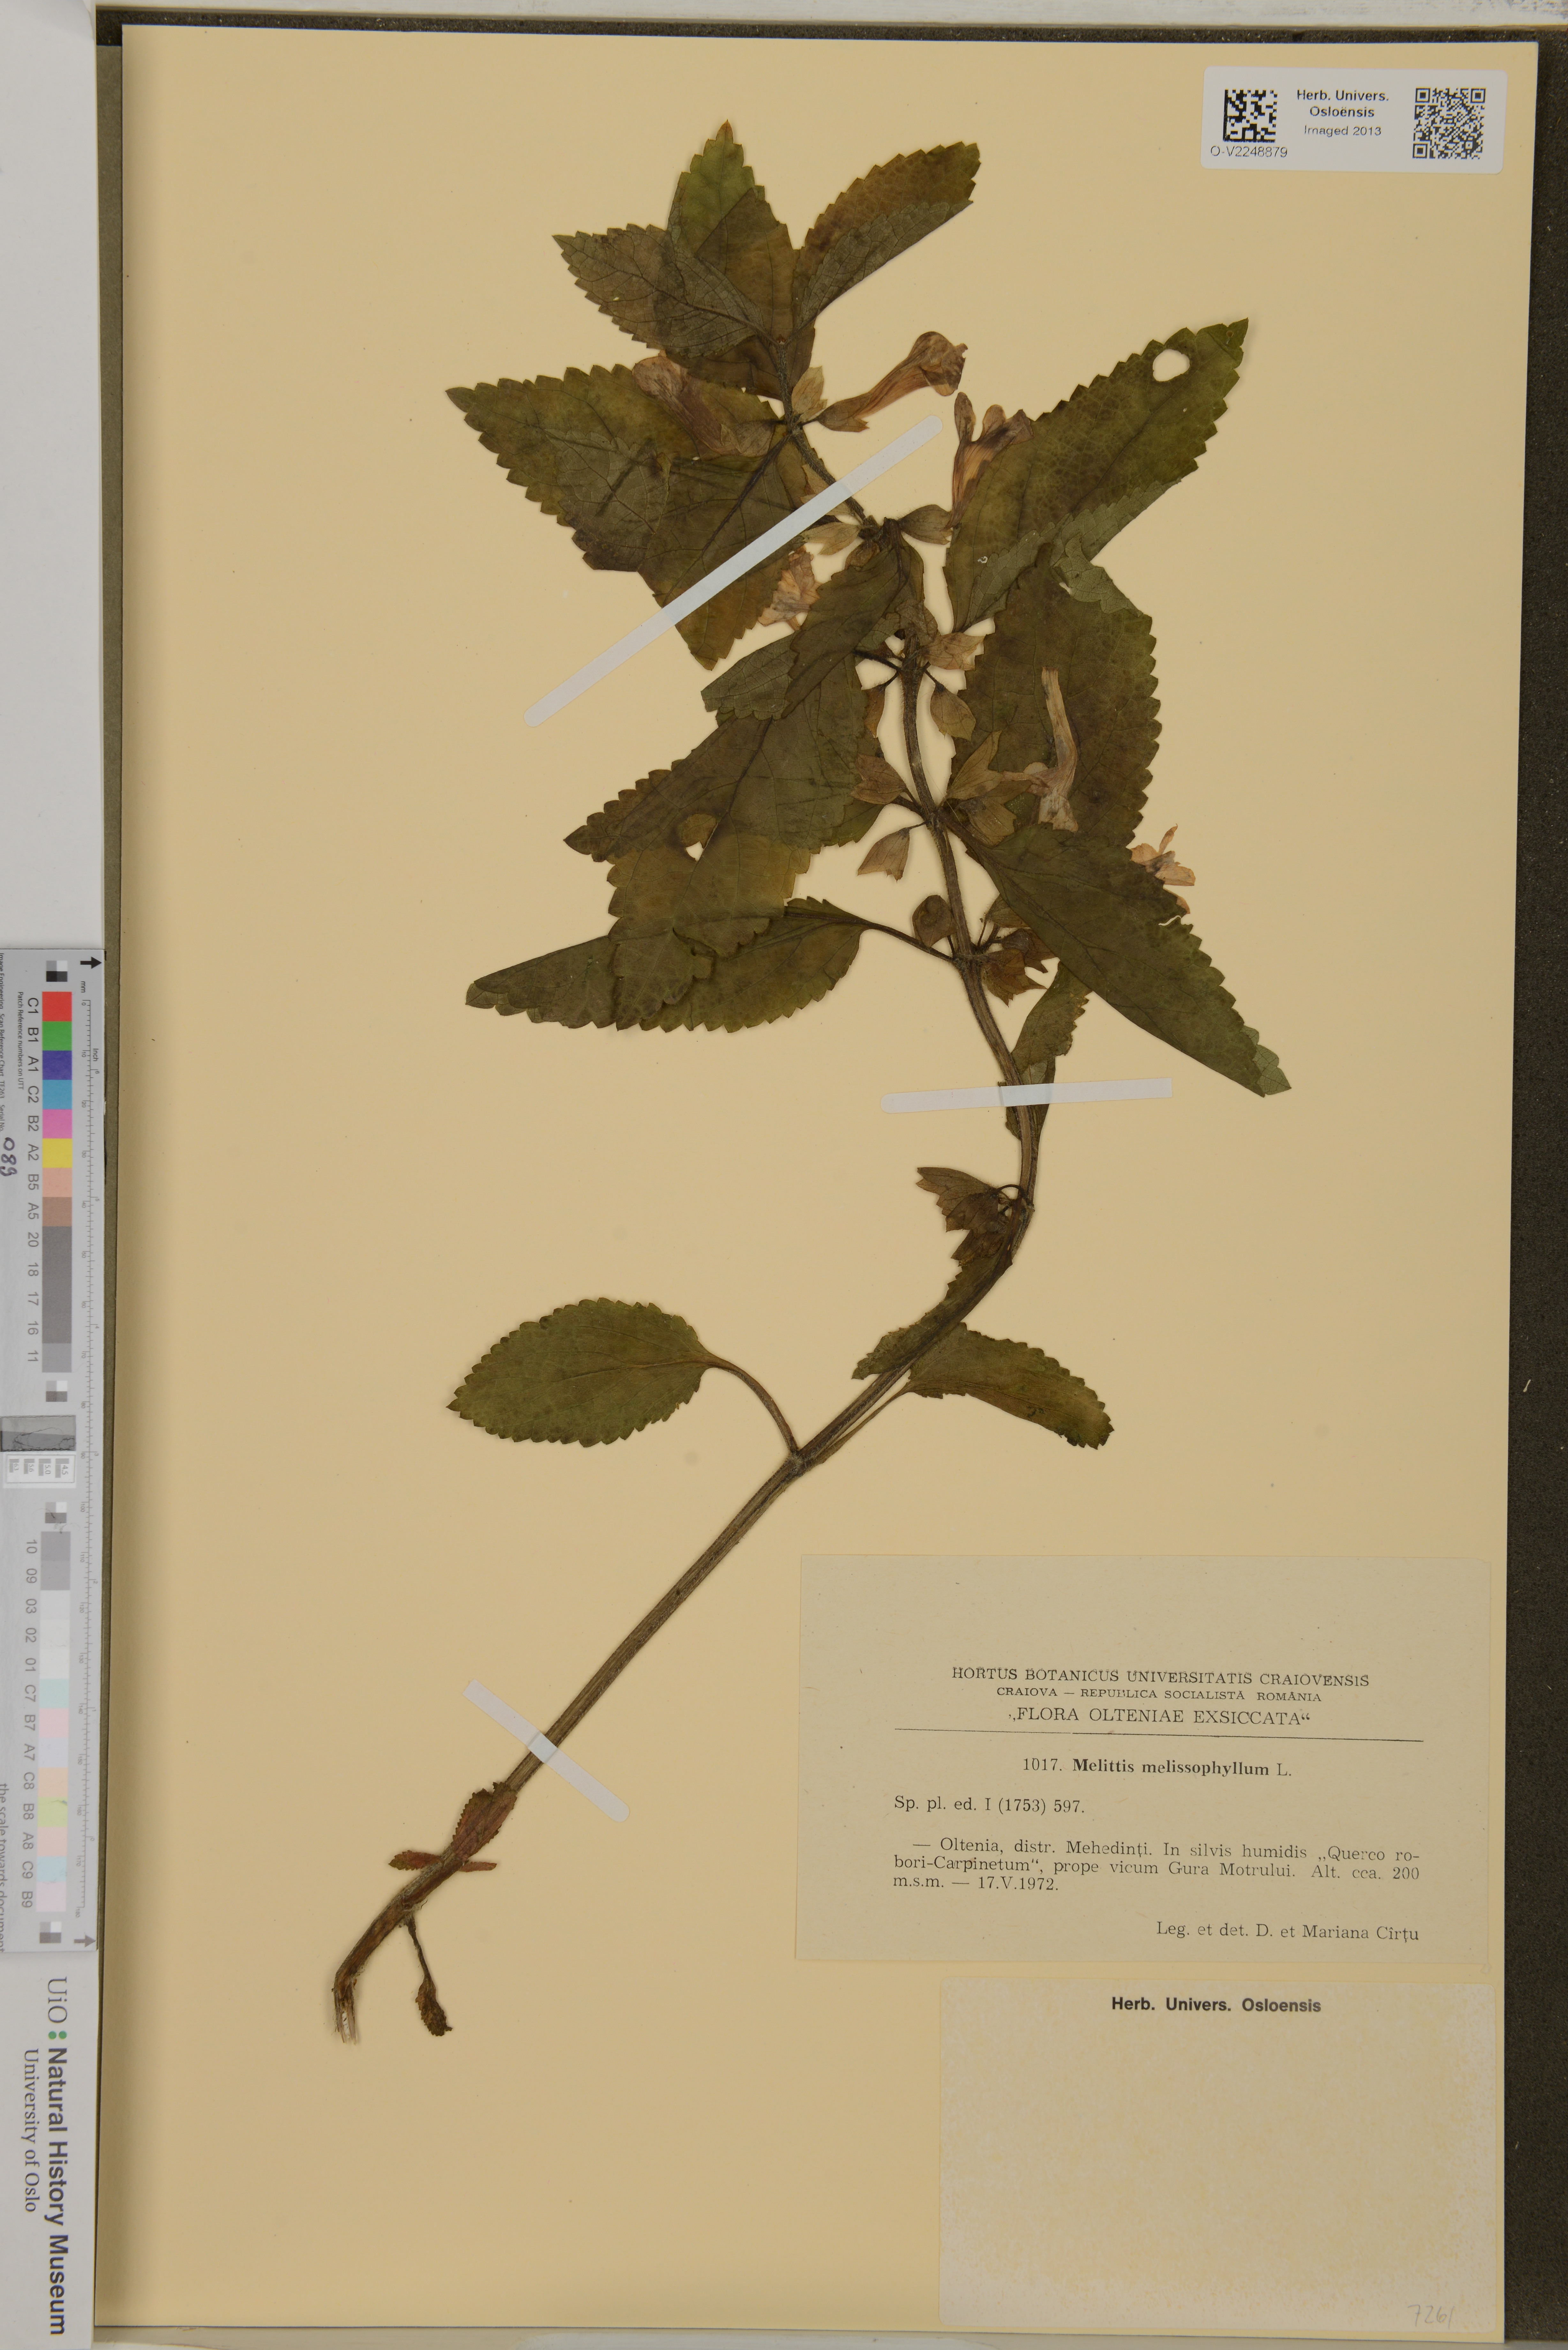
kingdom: Plantae
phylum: Tracheophyta
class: Magnoliopsida
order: Lamiales
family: Lamiaceae
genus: Melittis
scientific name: Melittis melissophyllum
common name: Bastard balm
